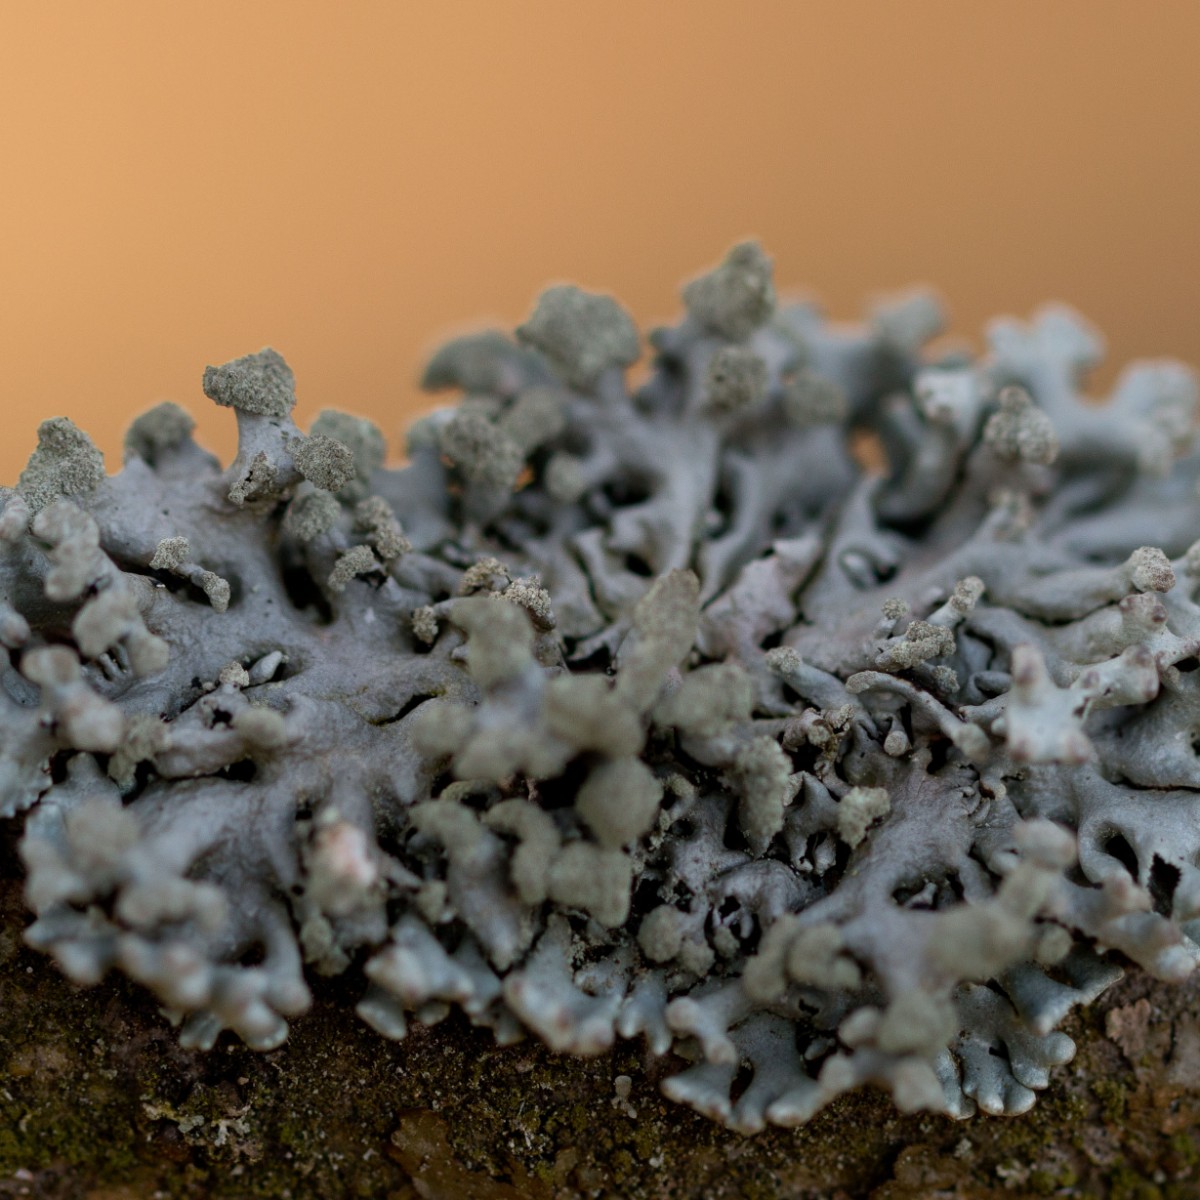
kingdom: Fungi
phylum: Ascomycota
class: Lecanoromycetes
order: Lecanorales
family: Parmeliaceae
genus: Hypogymnia
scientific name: Hypogymnia tubulosa
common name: finger-kvistlav
